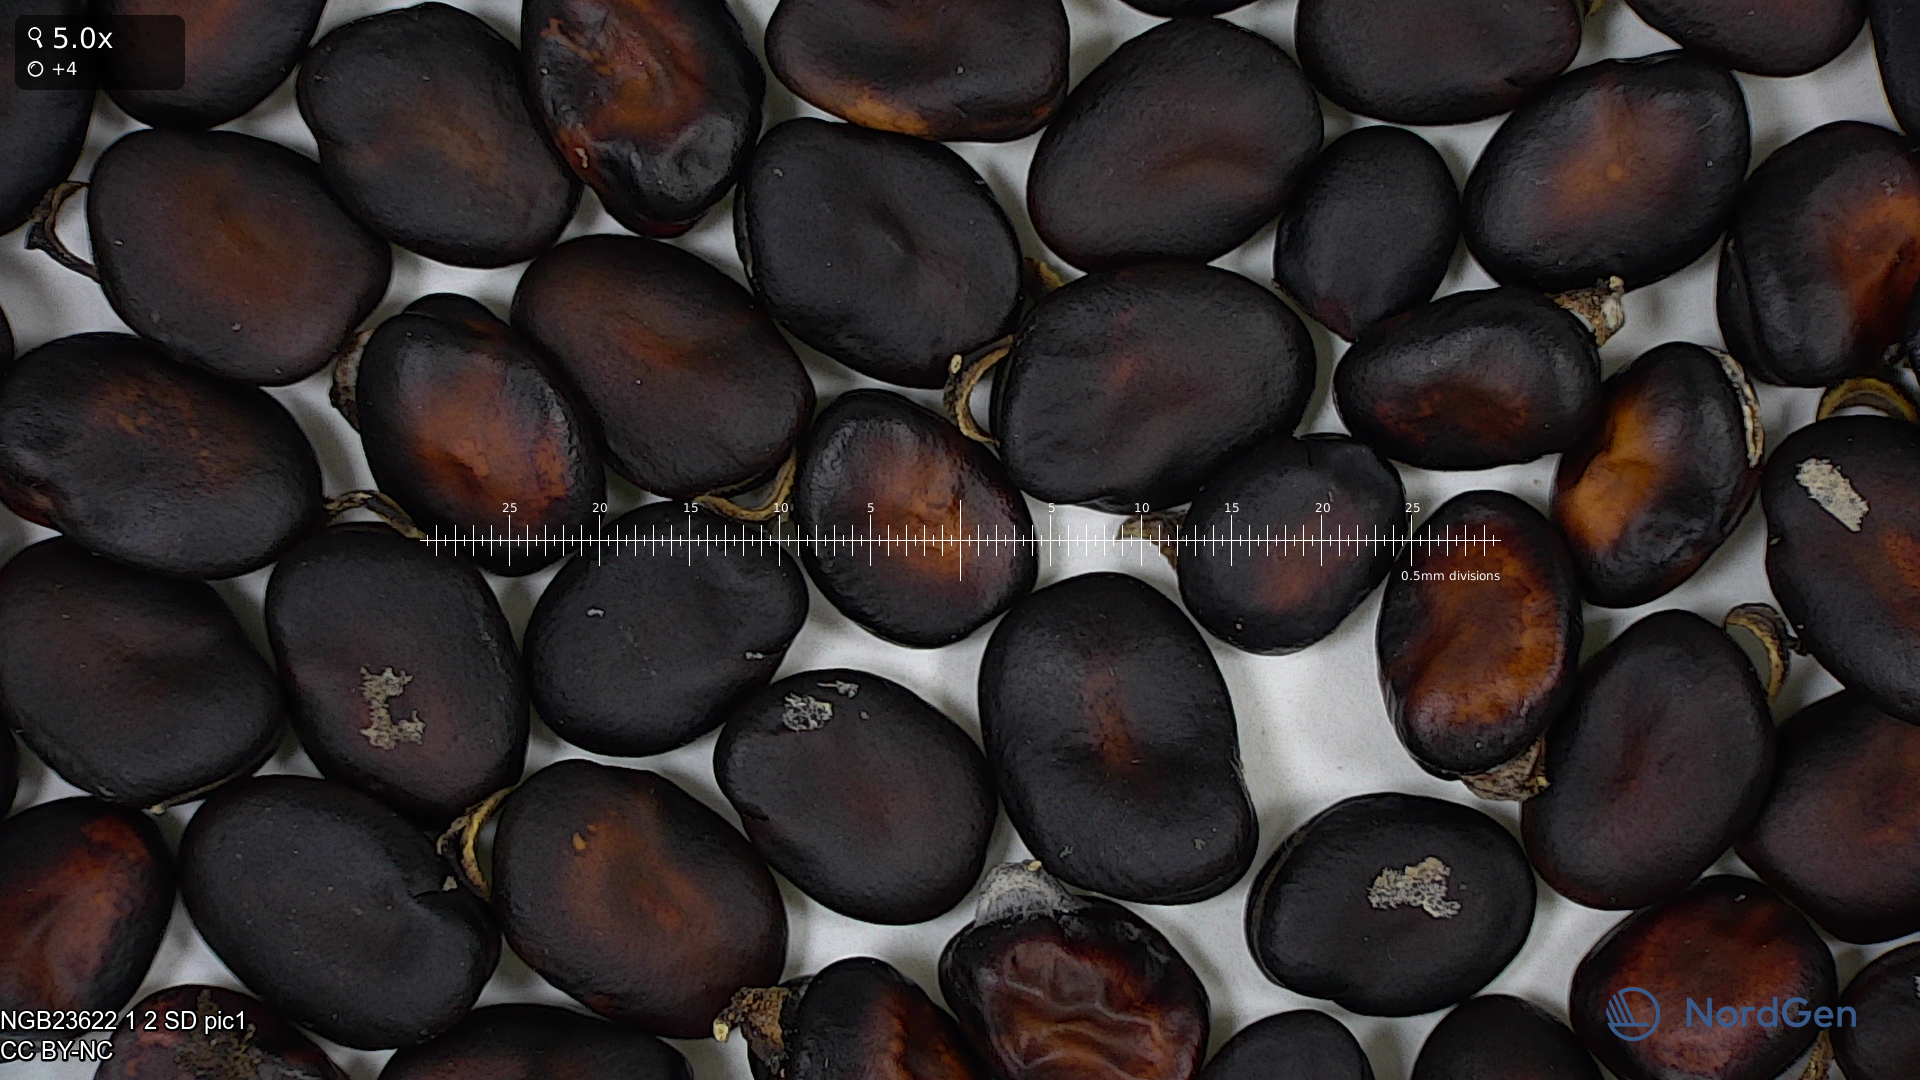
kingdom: Plantae
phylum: Tracheophyta
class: Magnoliopsida
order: Fabales
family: Fabaceae
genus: Vicia
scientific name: Vicia faba
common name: Broad bean
